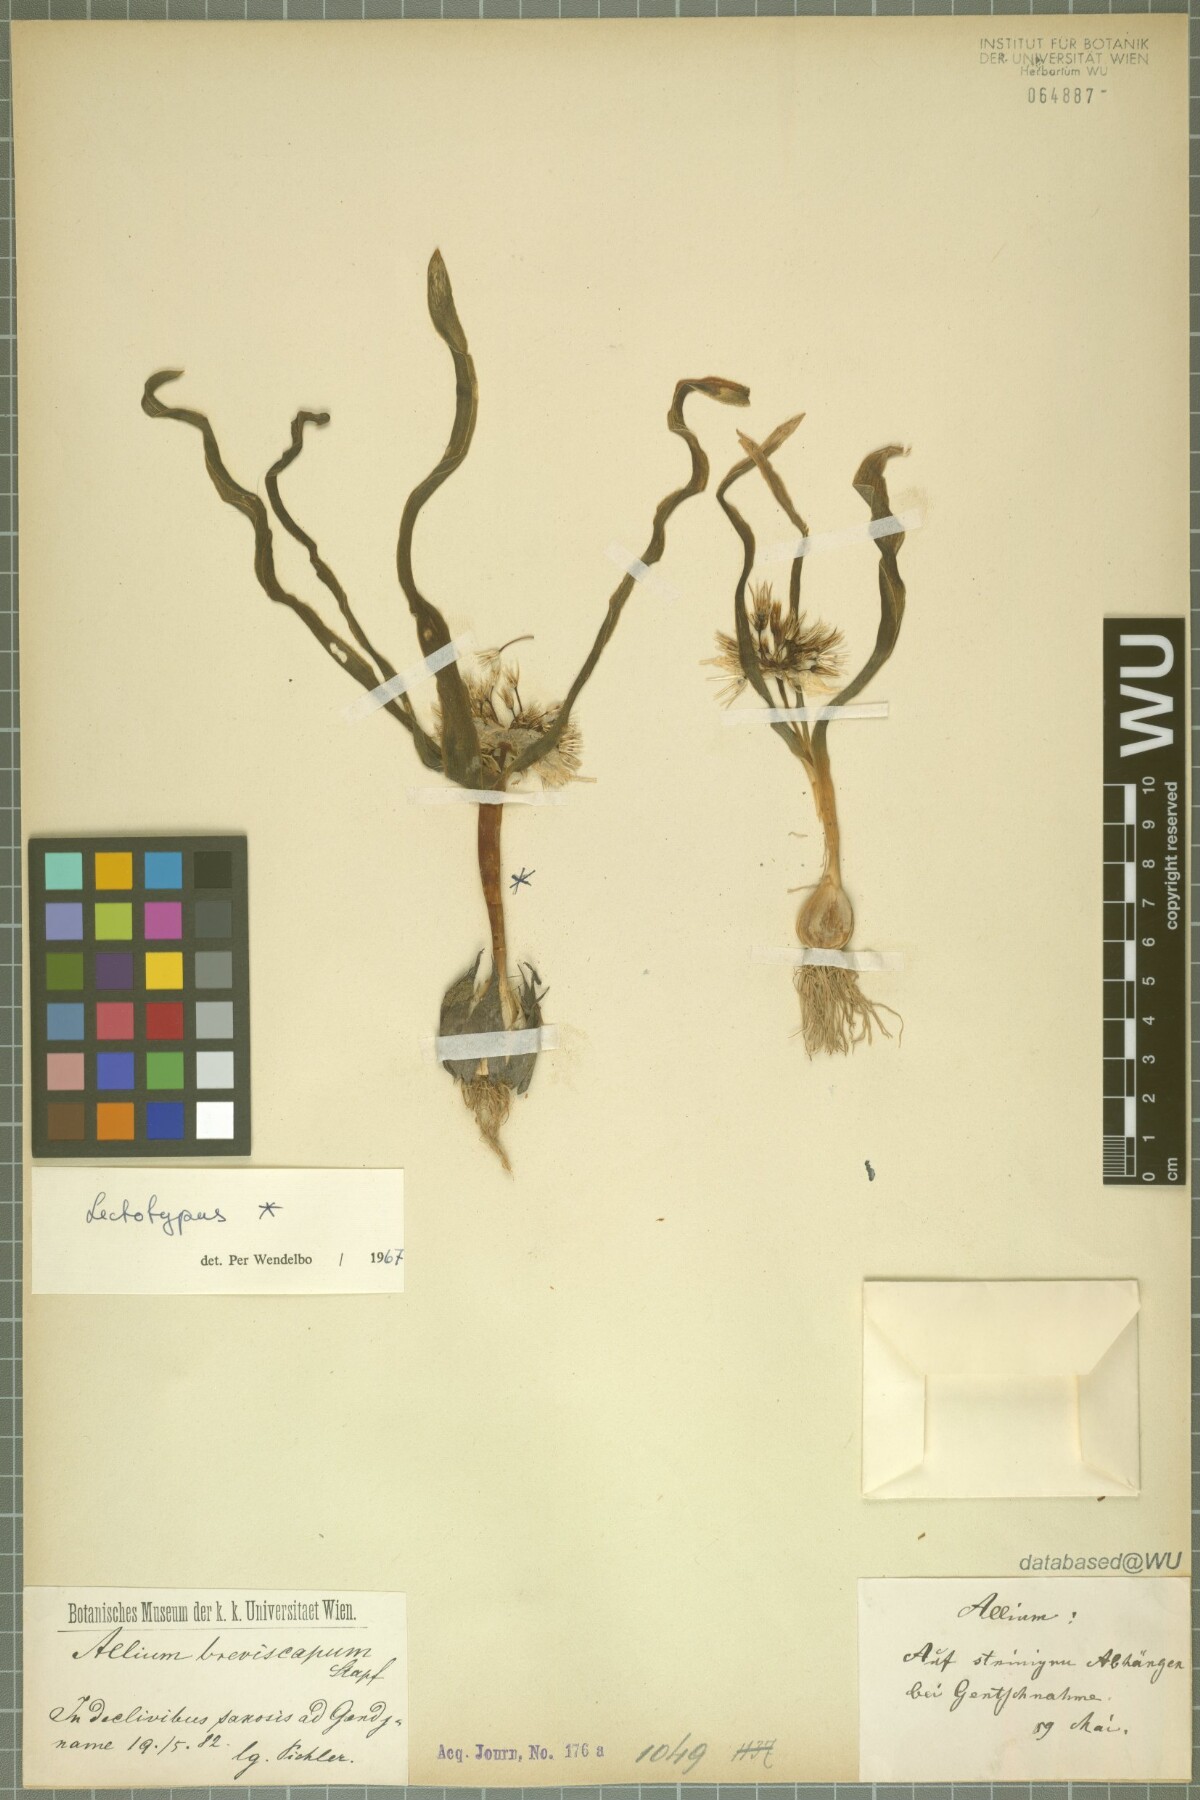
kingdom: Plantae
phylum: Tracheophyta
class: Liliopsida
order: Asparagales
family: Amaryllidaceae
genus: Allium
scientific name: Allium breviscapum
